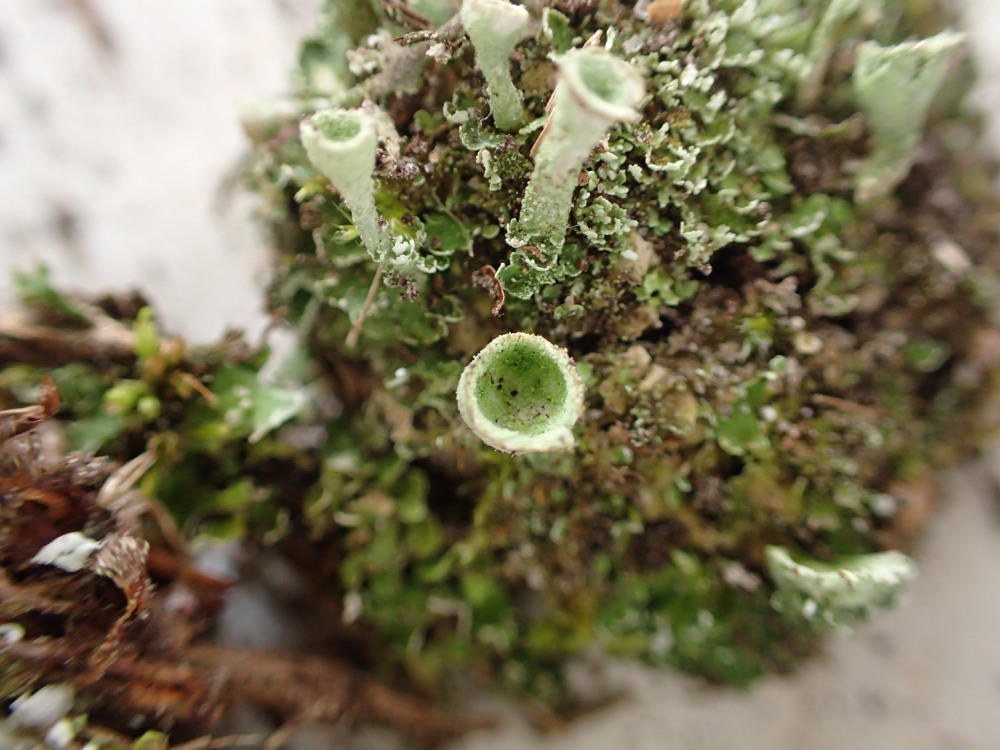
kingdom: Fungi
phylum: Ascomycota
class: Lecanoromycetes
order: Lecanorales
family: Cladoniaceae
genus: Cladonia
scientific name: Cladonia humilis
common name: lav bægerlav
